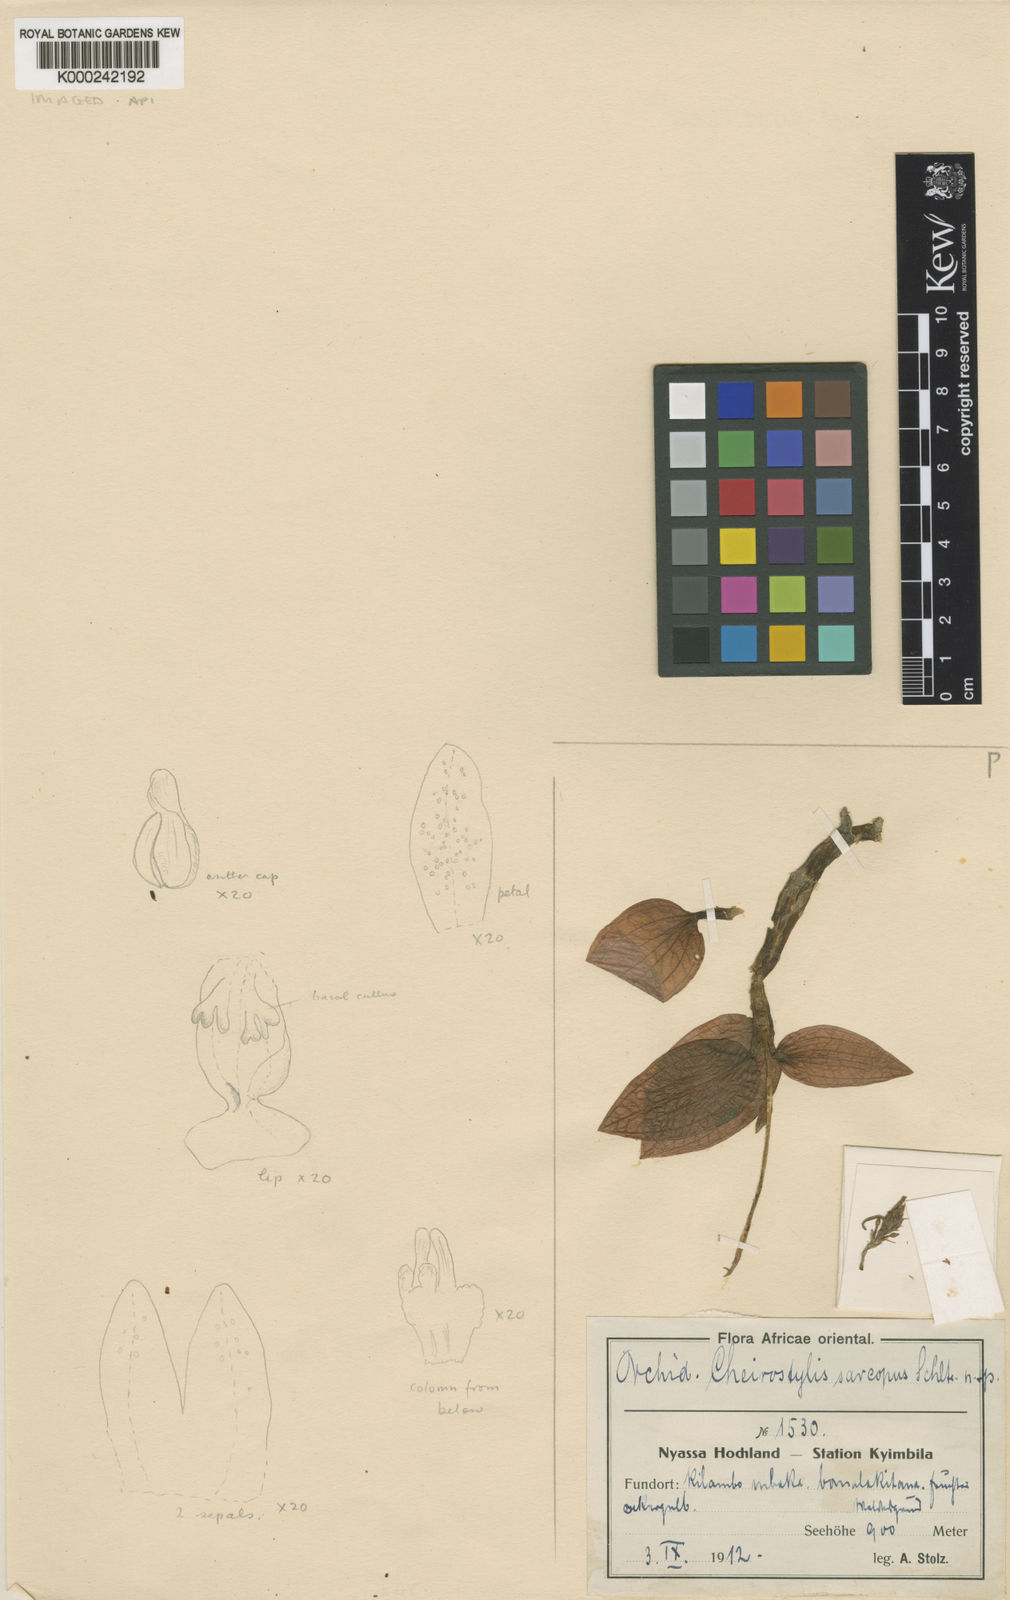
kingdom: Plantae
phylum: Tracheophyta
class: Liliopsida
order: Asparagales
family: Orchidaceae
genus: Cheirostylis
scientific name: Cheirostylis sarcopus
